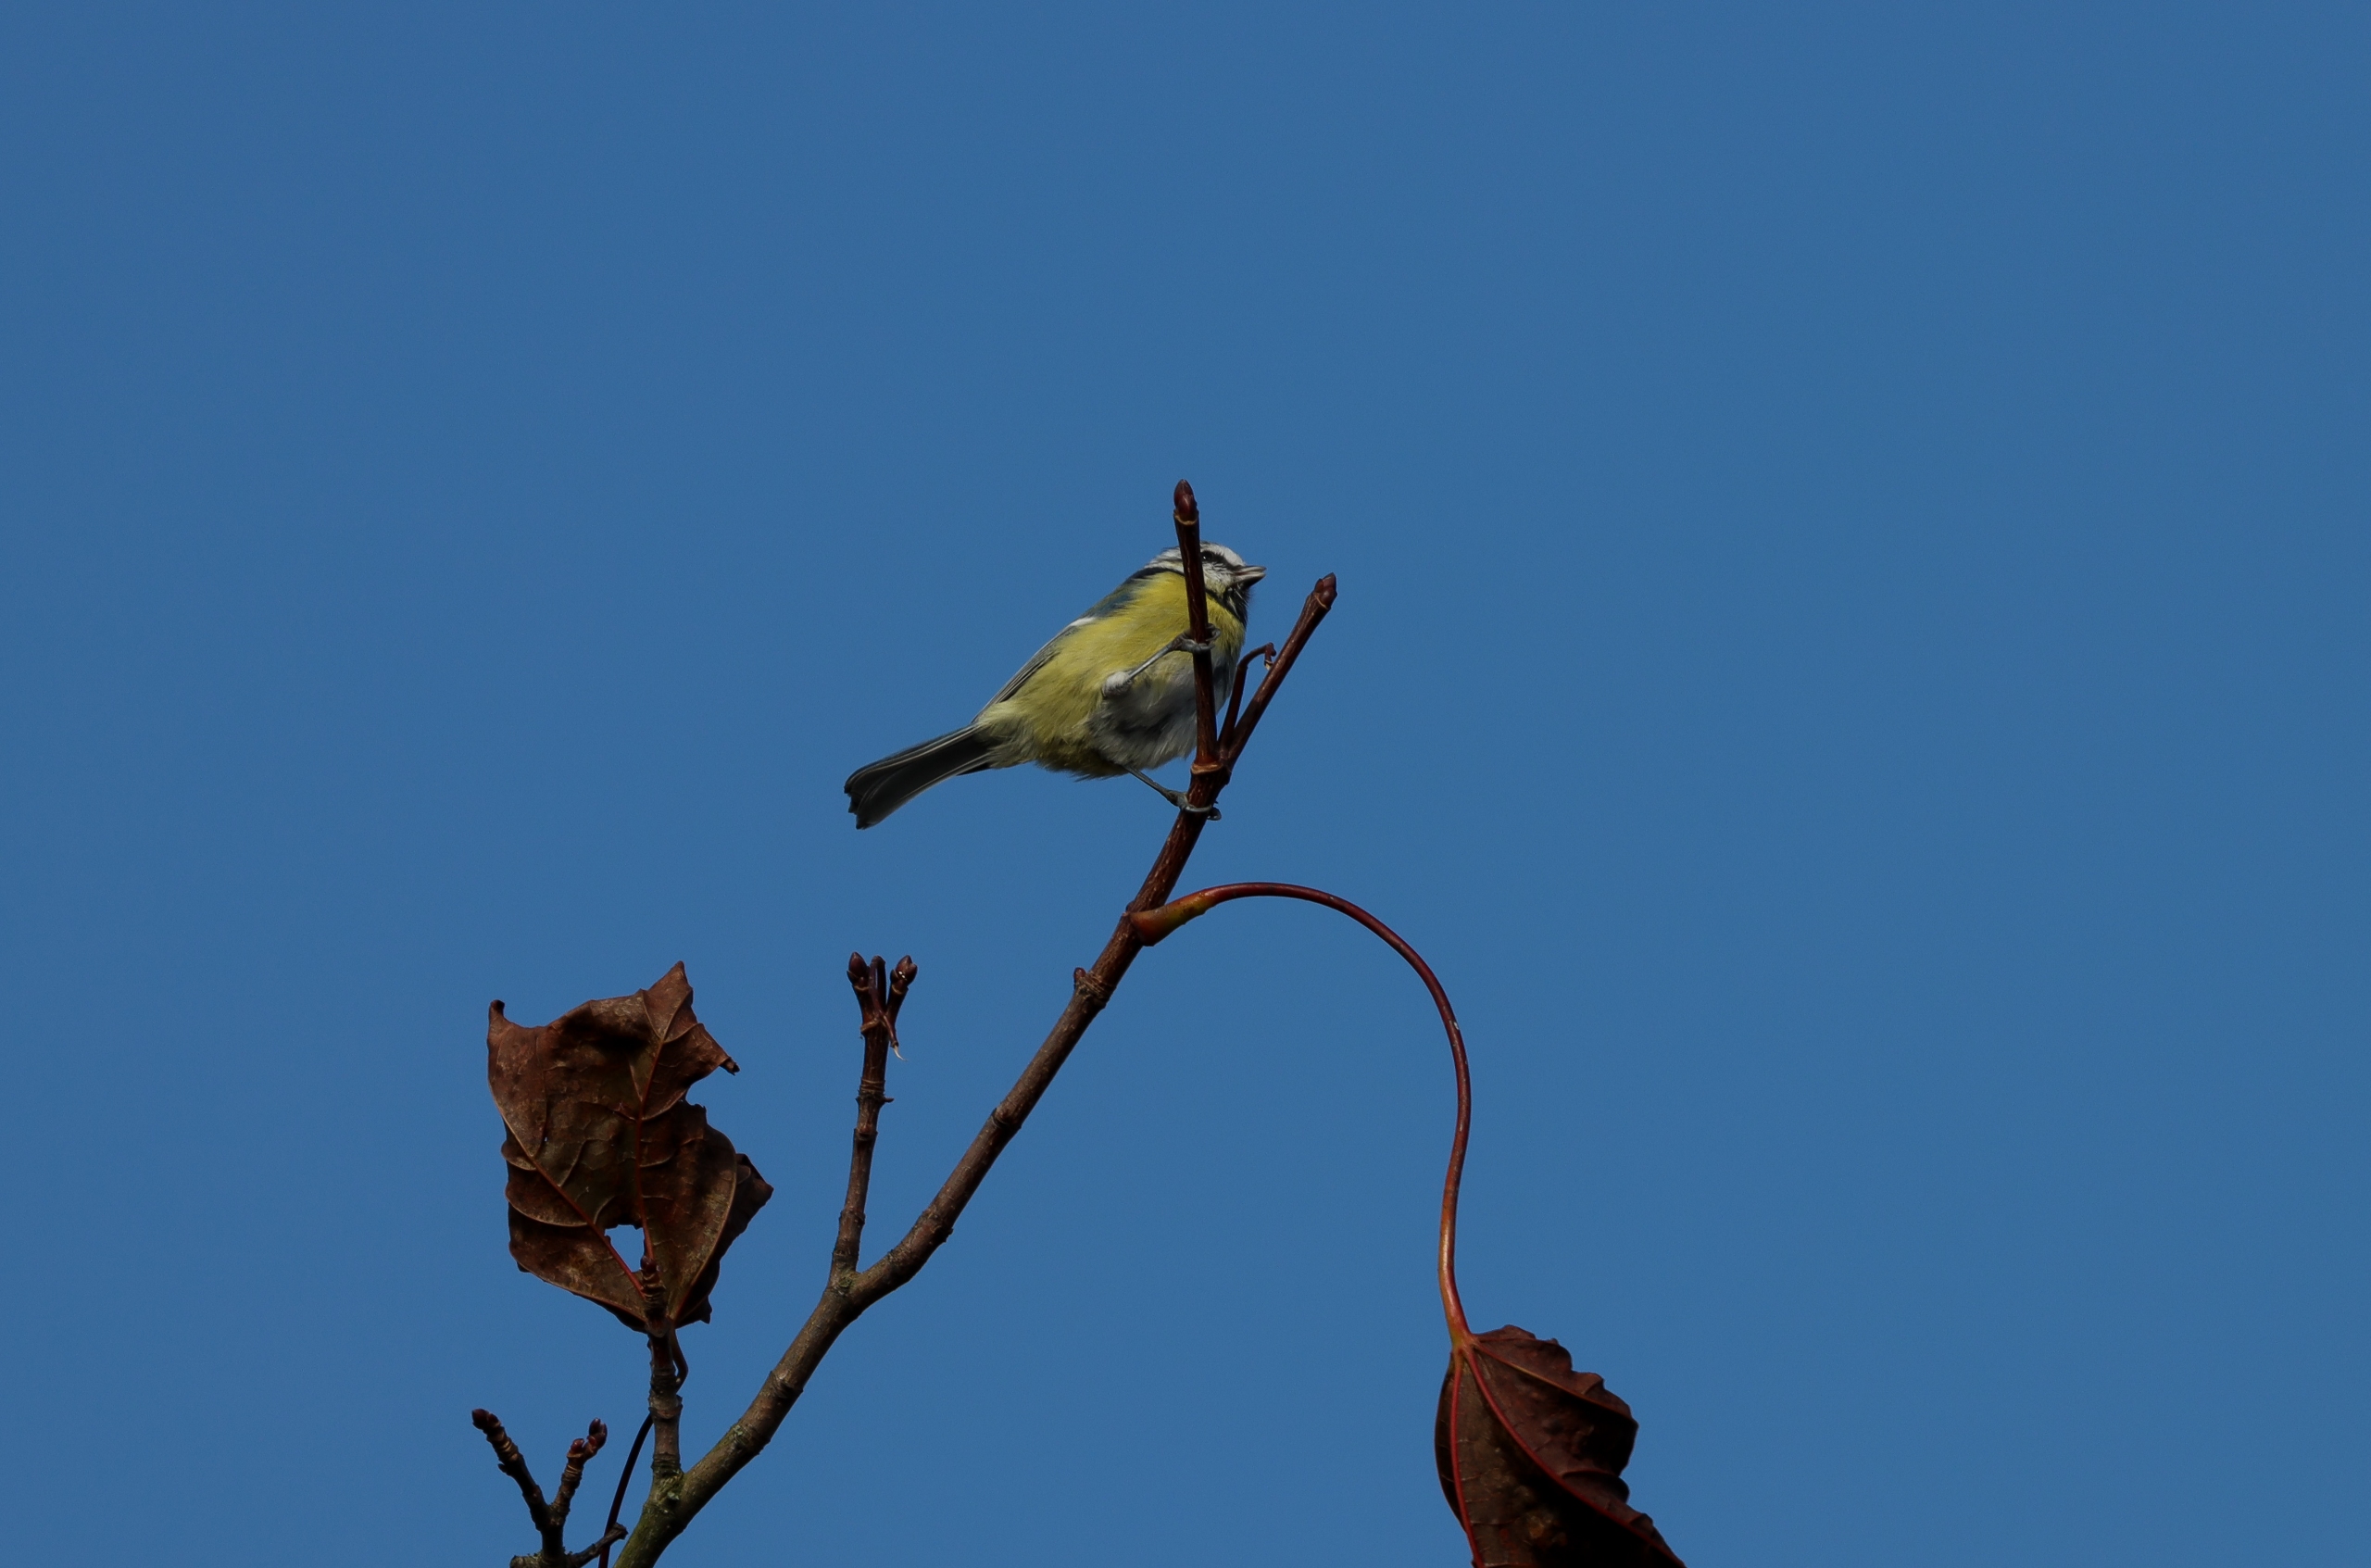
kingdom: Animalia
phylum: Chordata
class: Aves
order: Passeriformes
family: Paridae
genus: Cyanistes
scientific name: Cyanistes caeruleus
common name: Blåmejse
